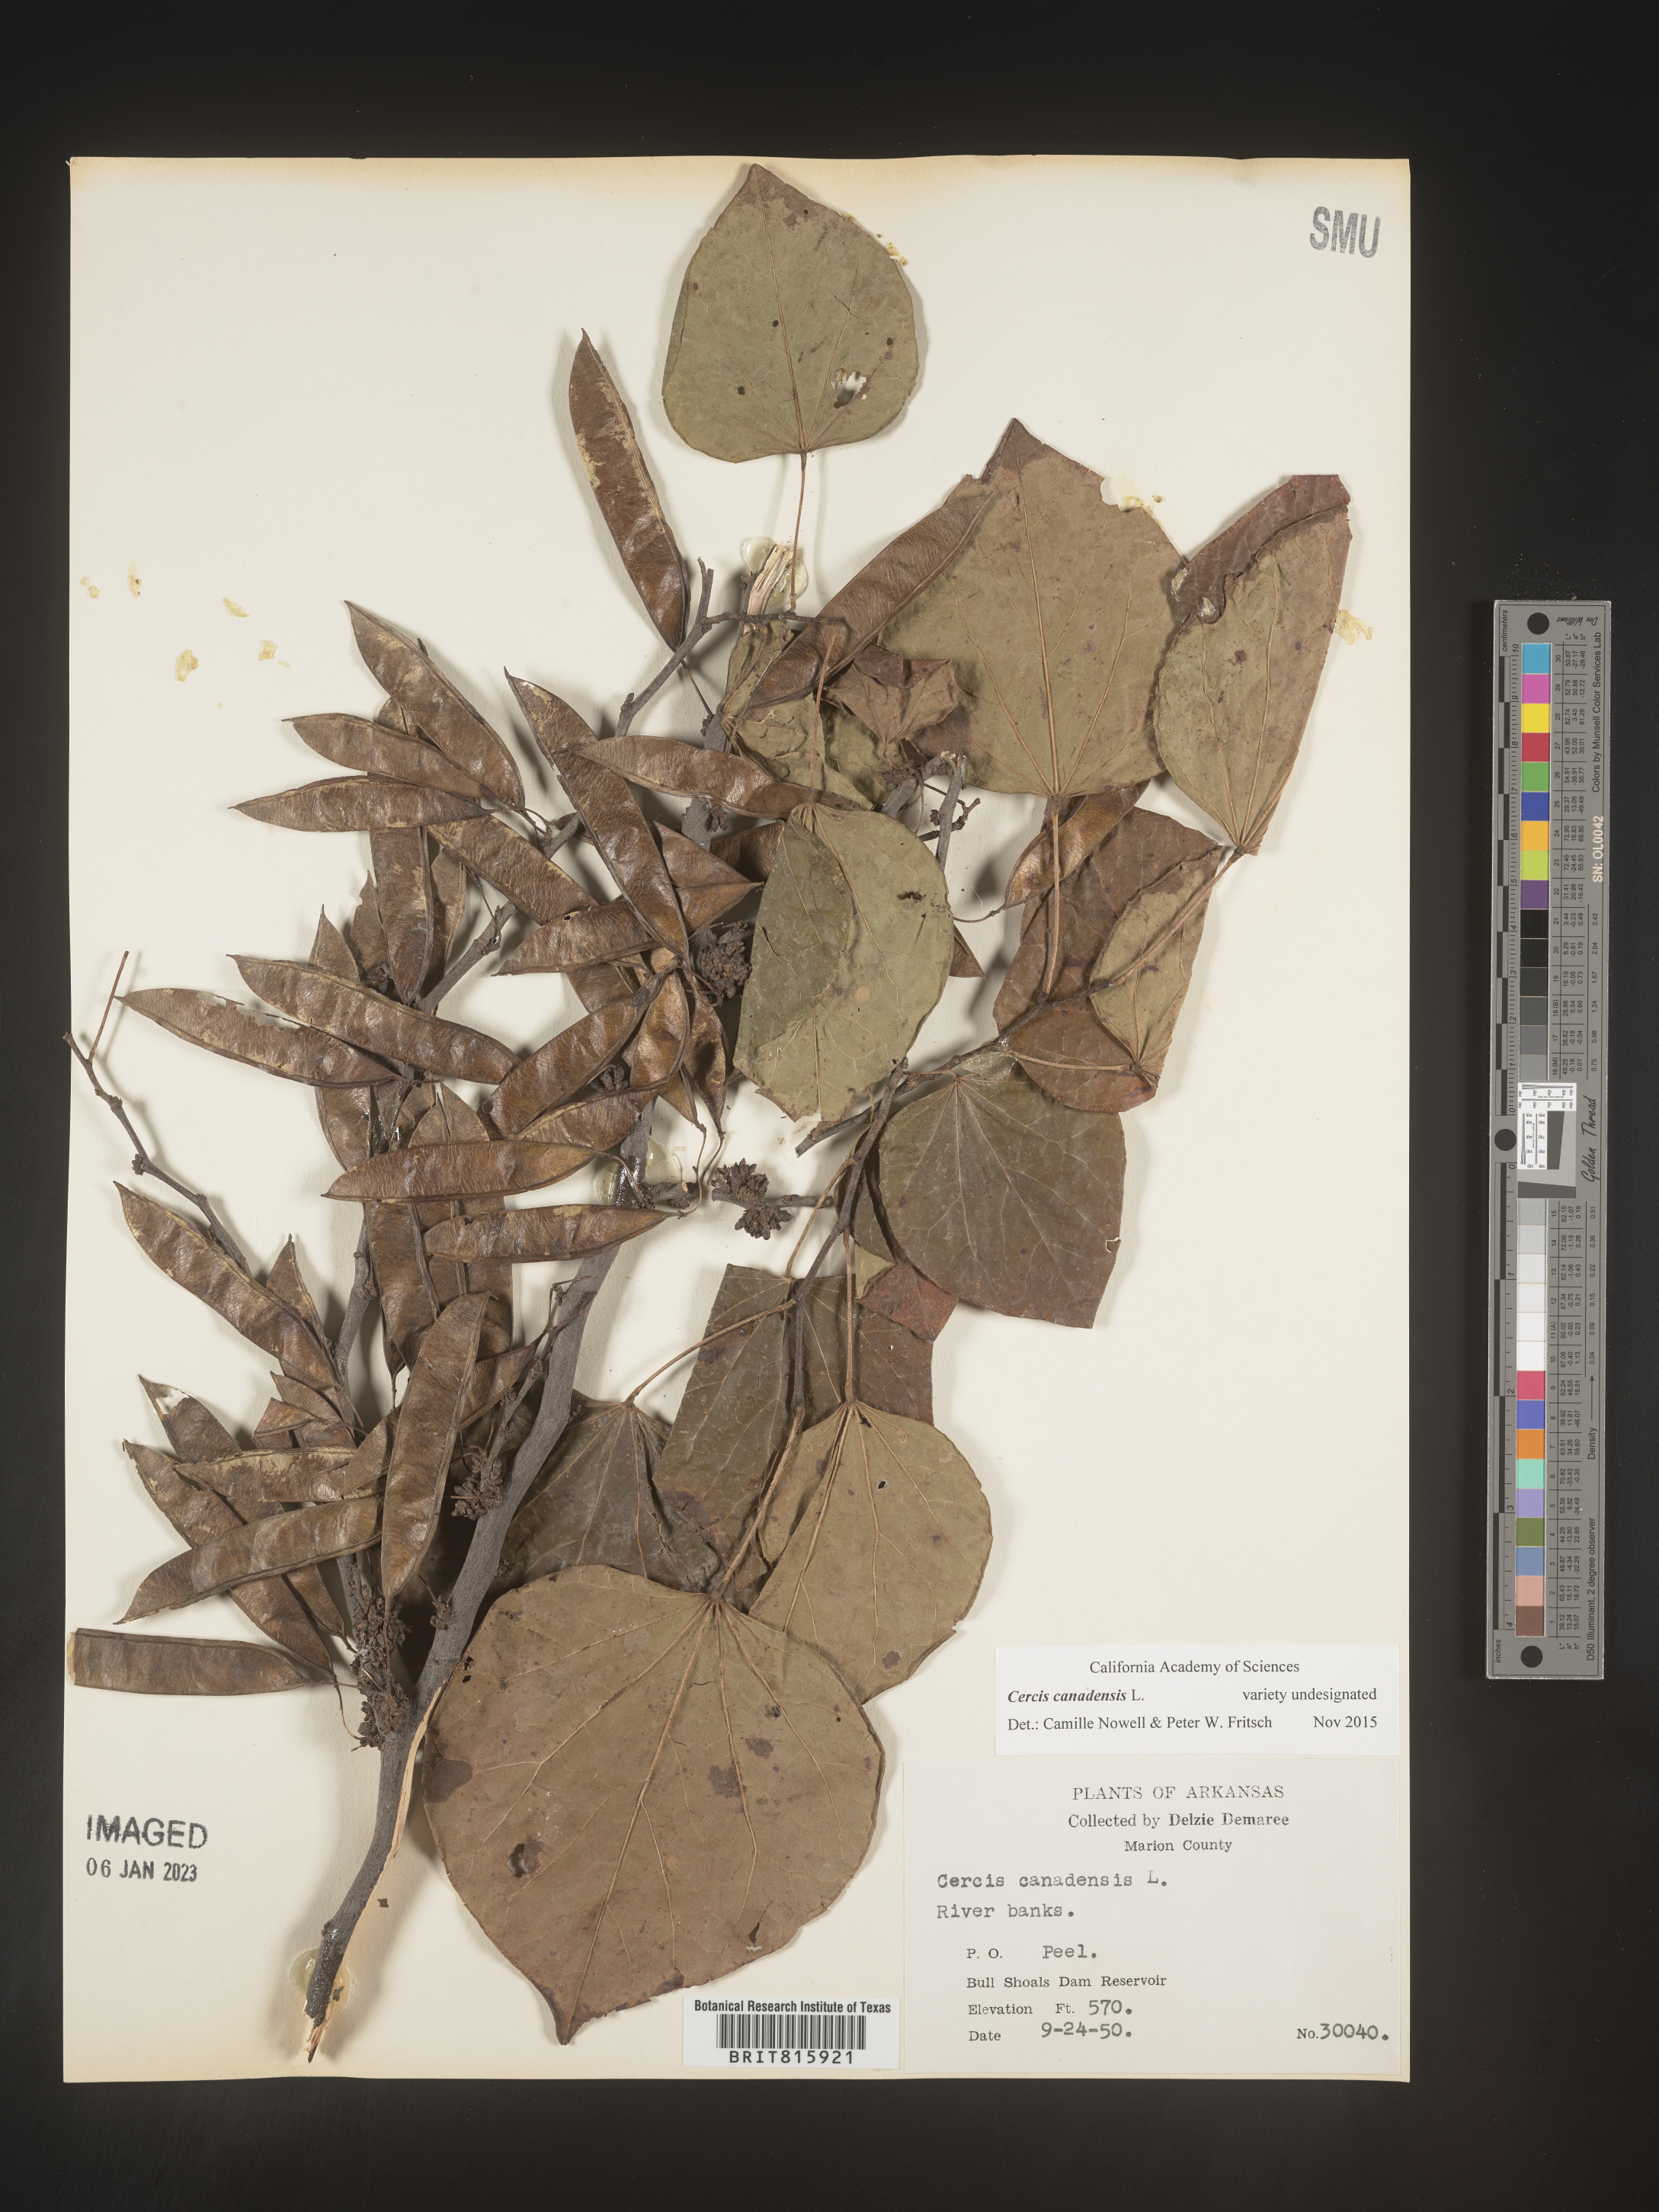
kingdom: Plantae
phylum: Tracheophyta
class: Magnoliopsida
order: Fabales
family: Fabaceae
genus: Cercis
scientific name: Cercis canadensis
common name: Eastern redbud
